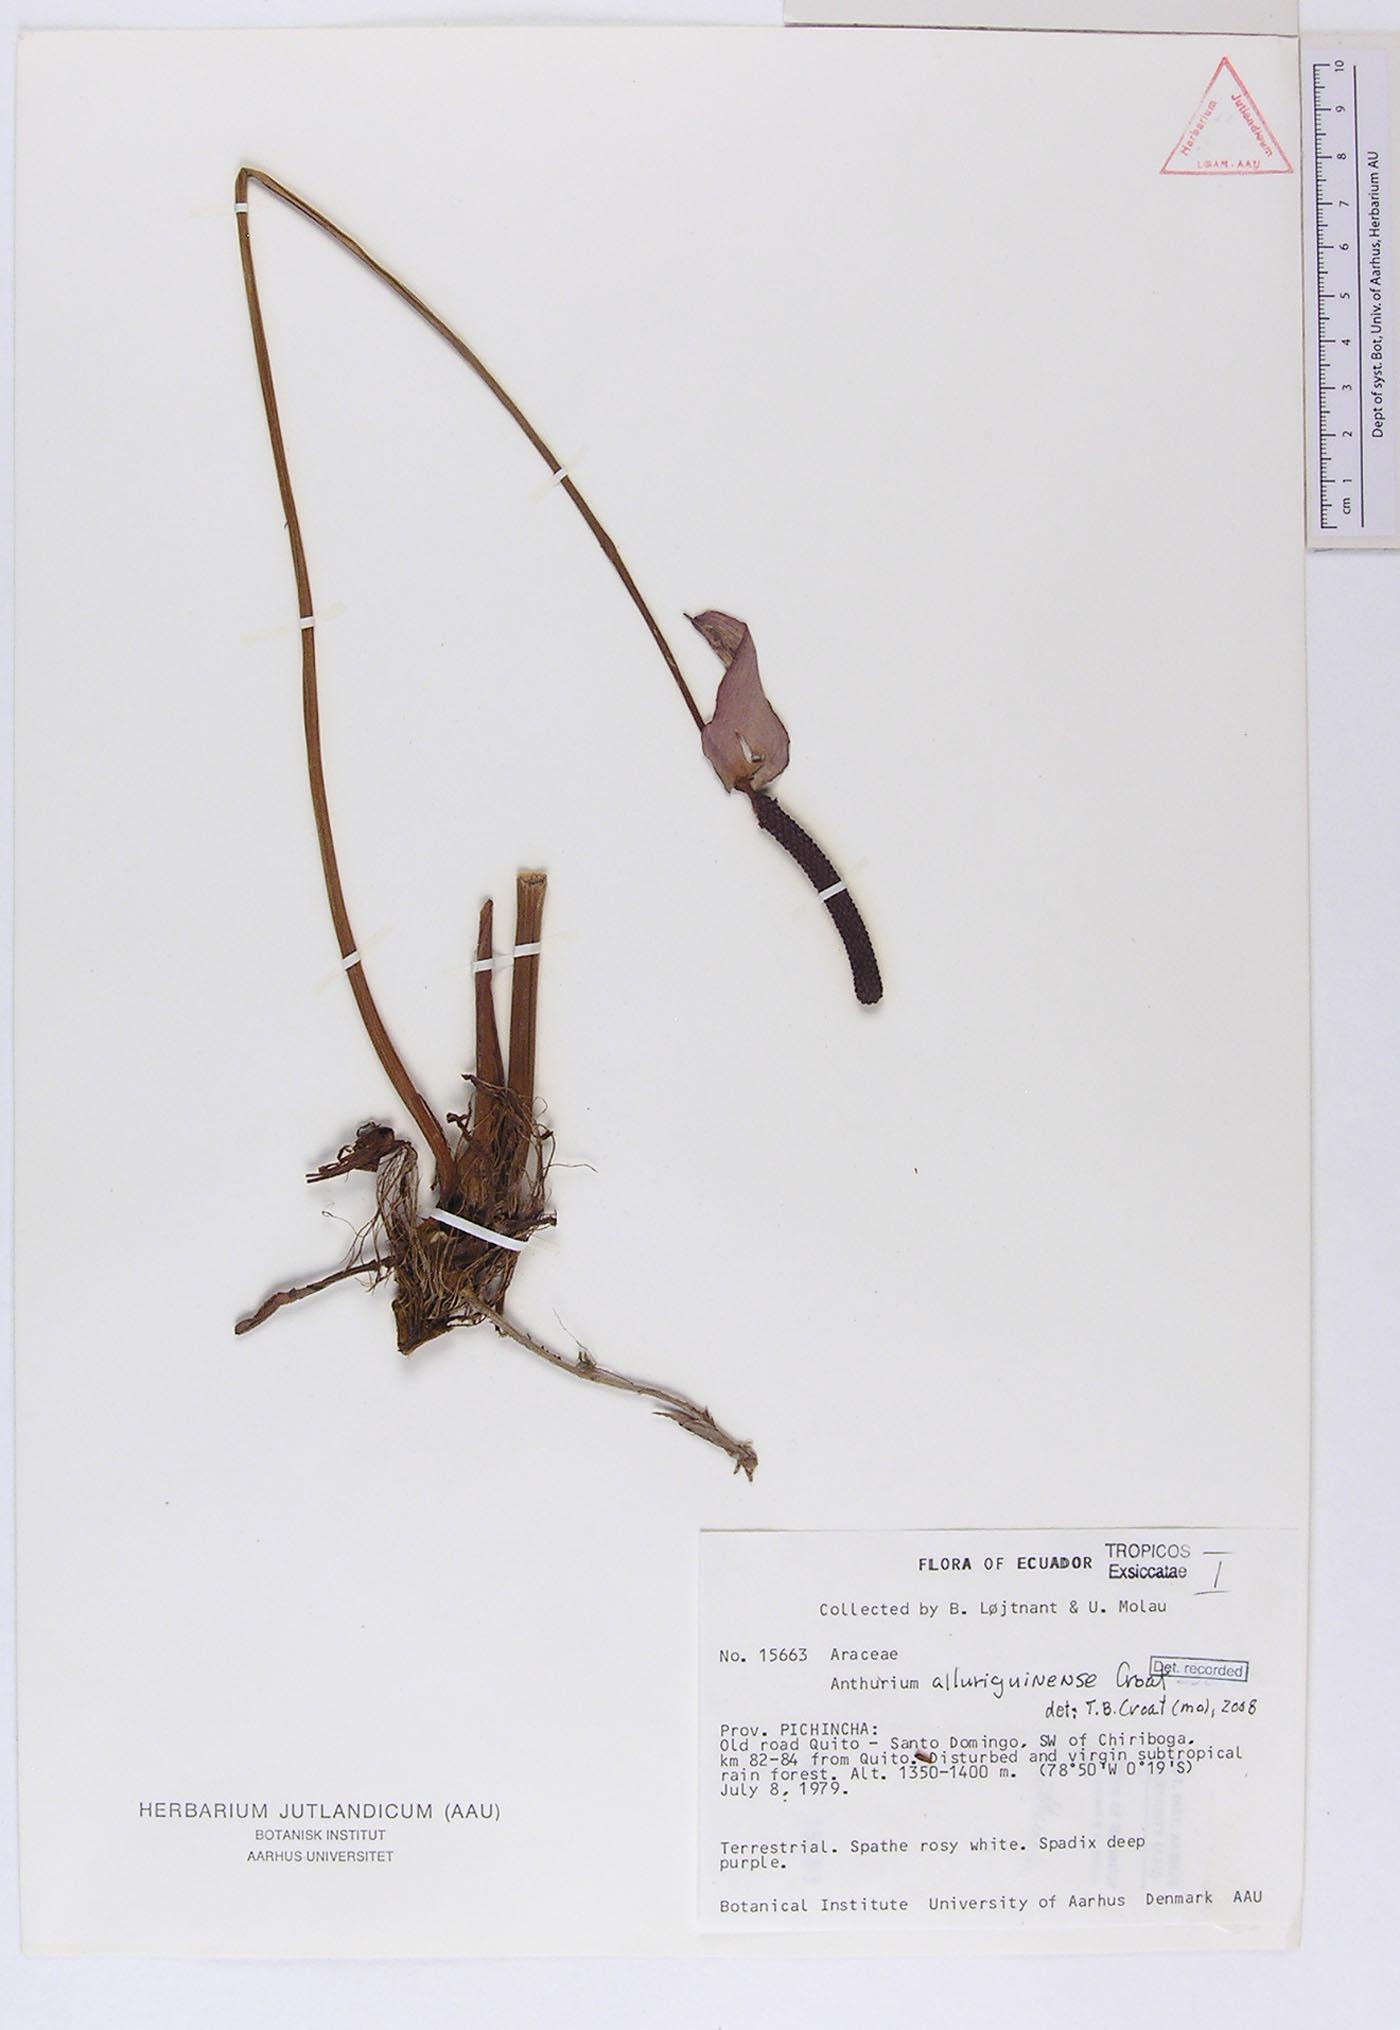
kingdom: Plantae
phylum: Tracheophyta
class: Liliopsida
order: Alismatales
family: Araceae
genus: Anthurium
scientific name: Anthurium alluriquinense
